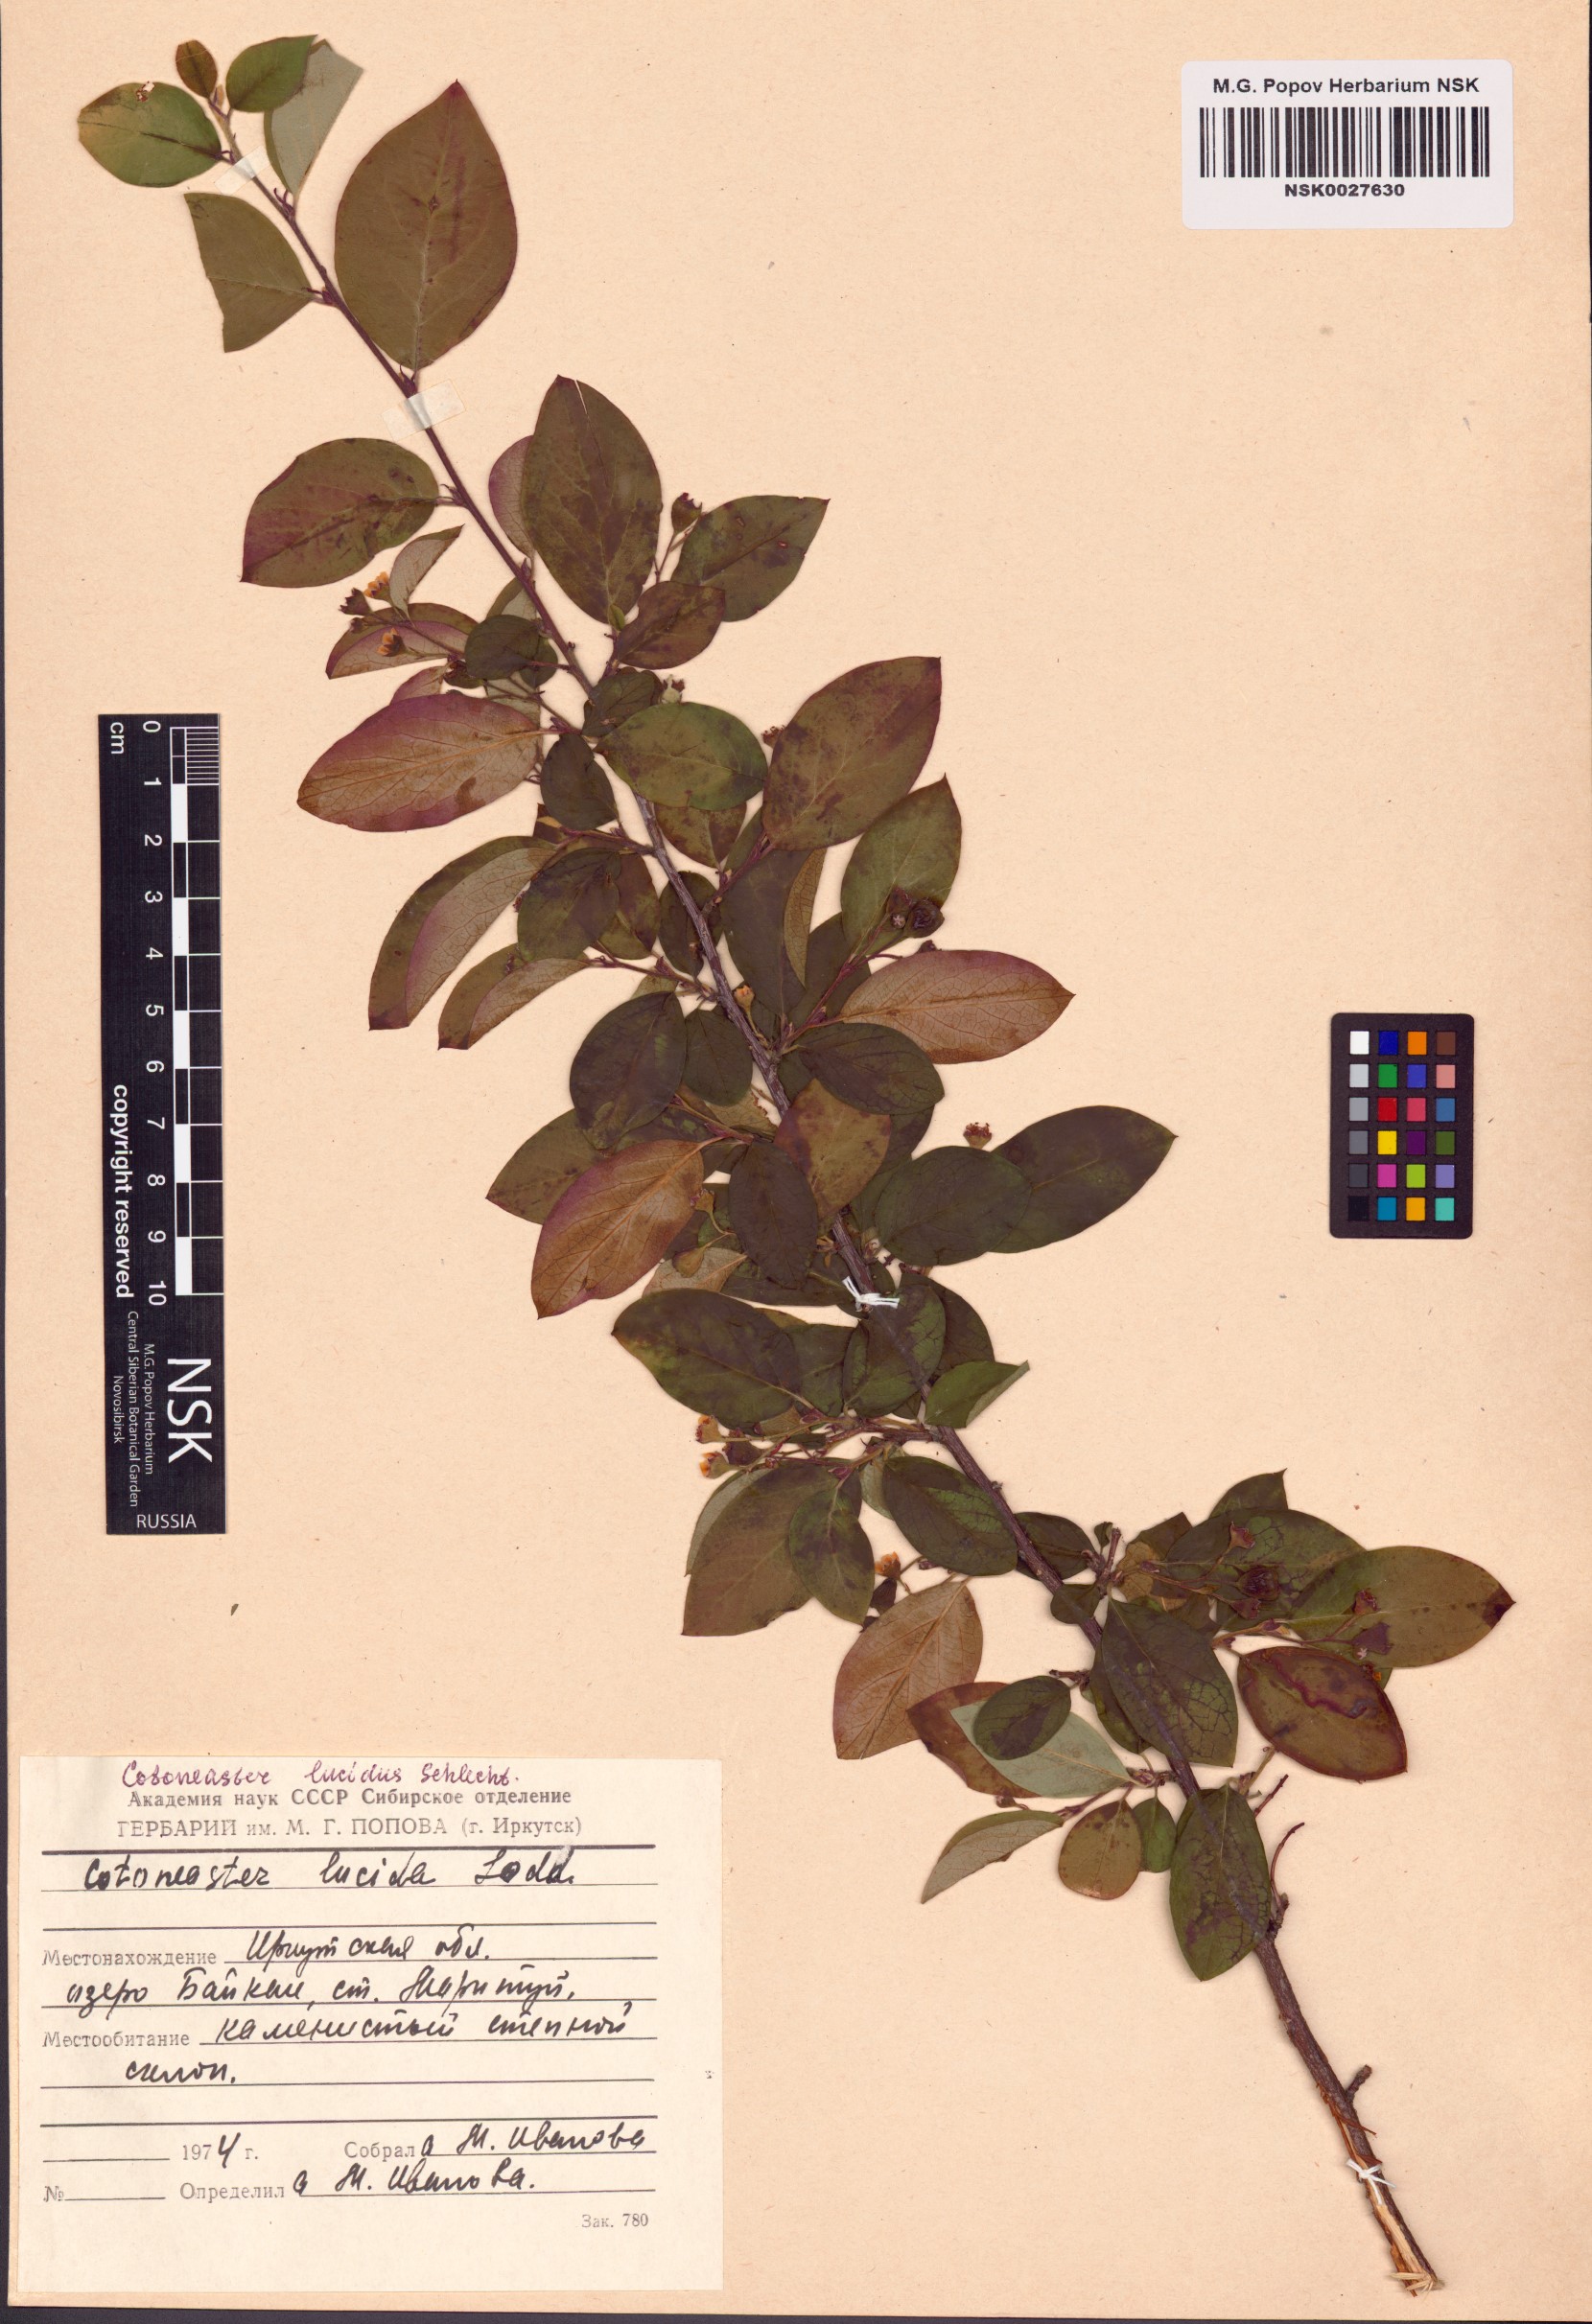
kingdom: Plantae
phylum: Tracheophyta
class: Magnoliopsida
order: Rosales
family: Rosaceae
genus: Cotoneaster
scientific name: Cotoneaster acutifolius
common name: Peking cotoneaster
